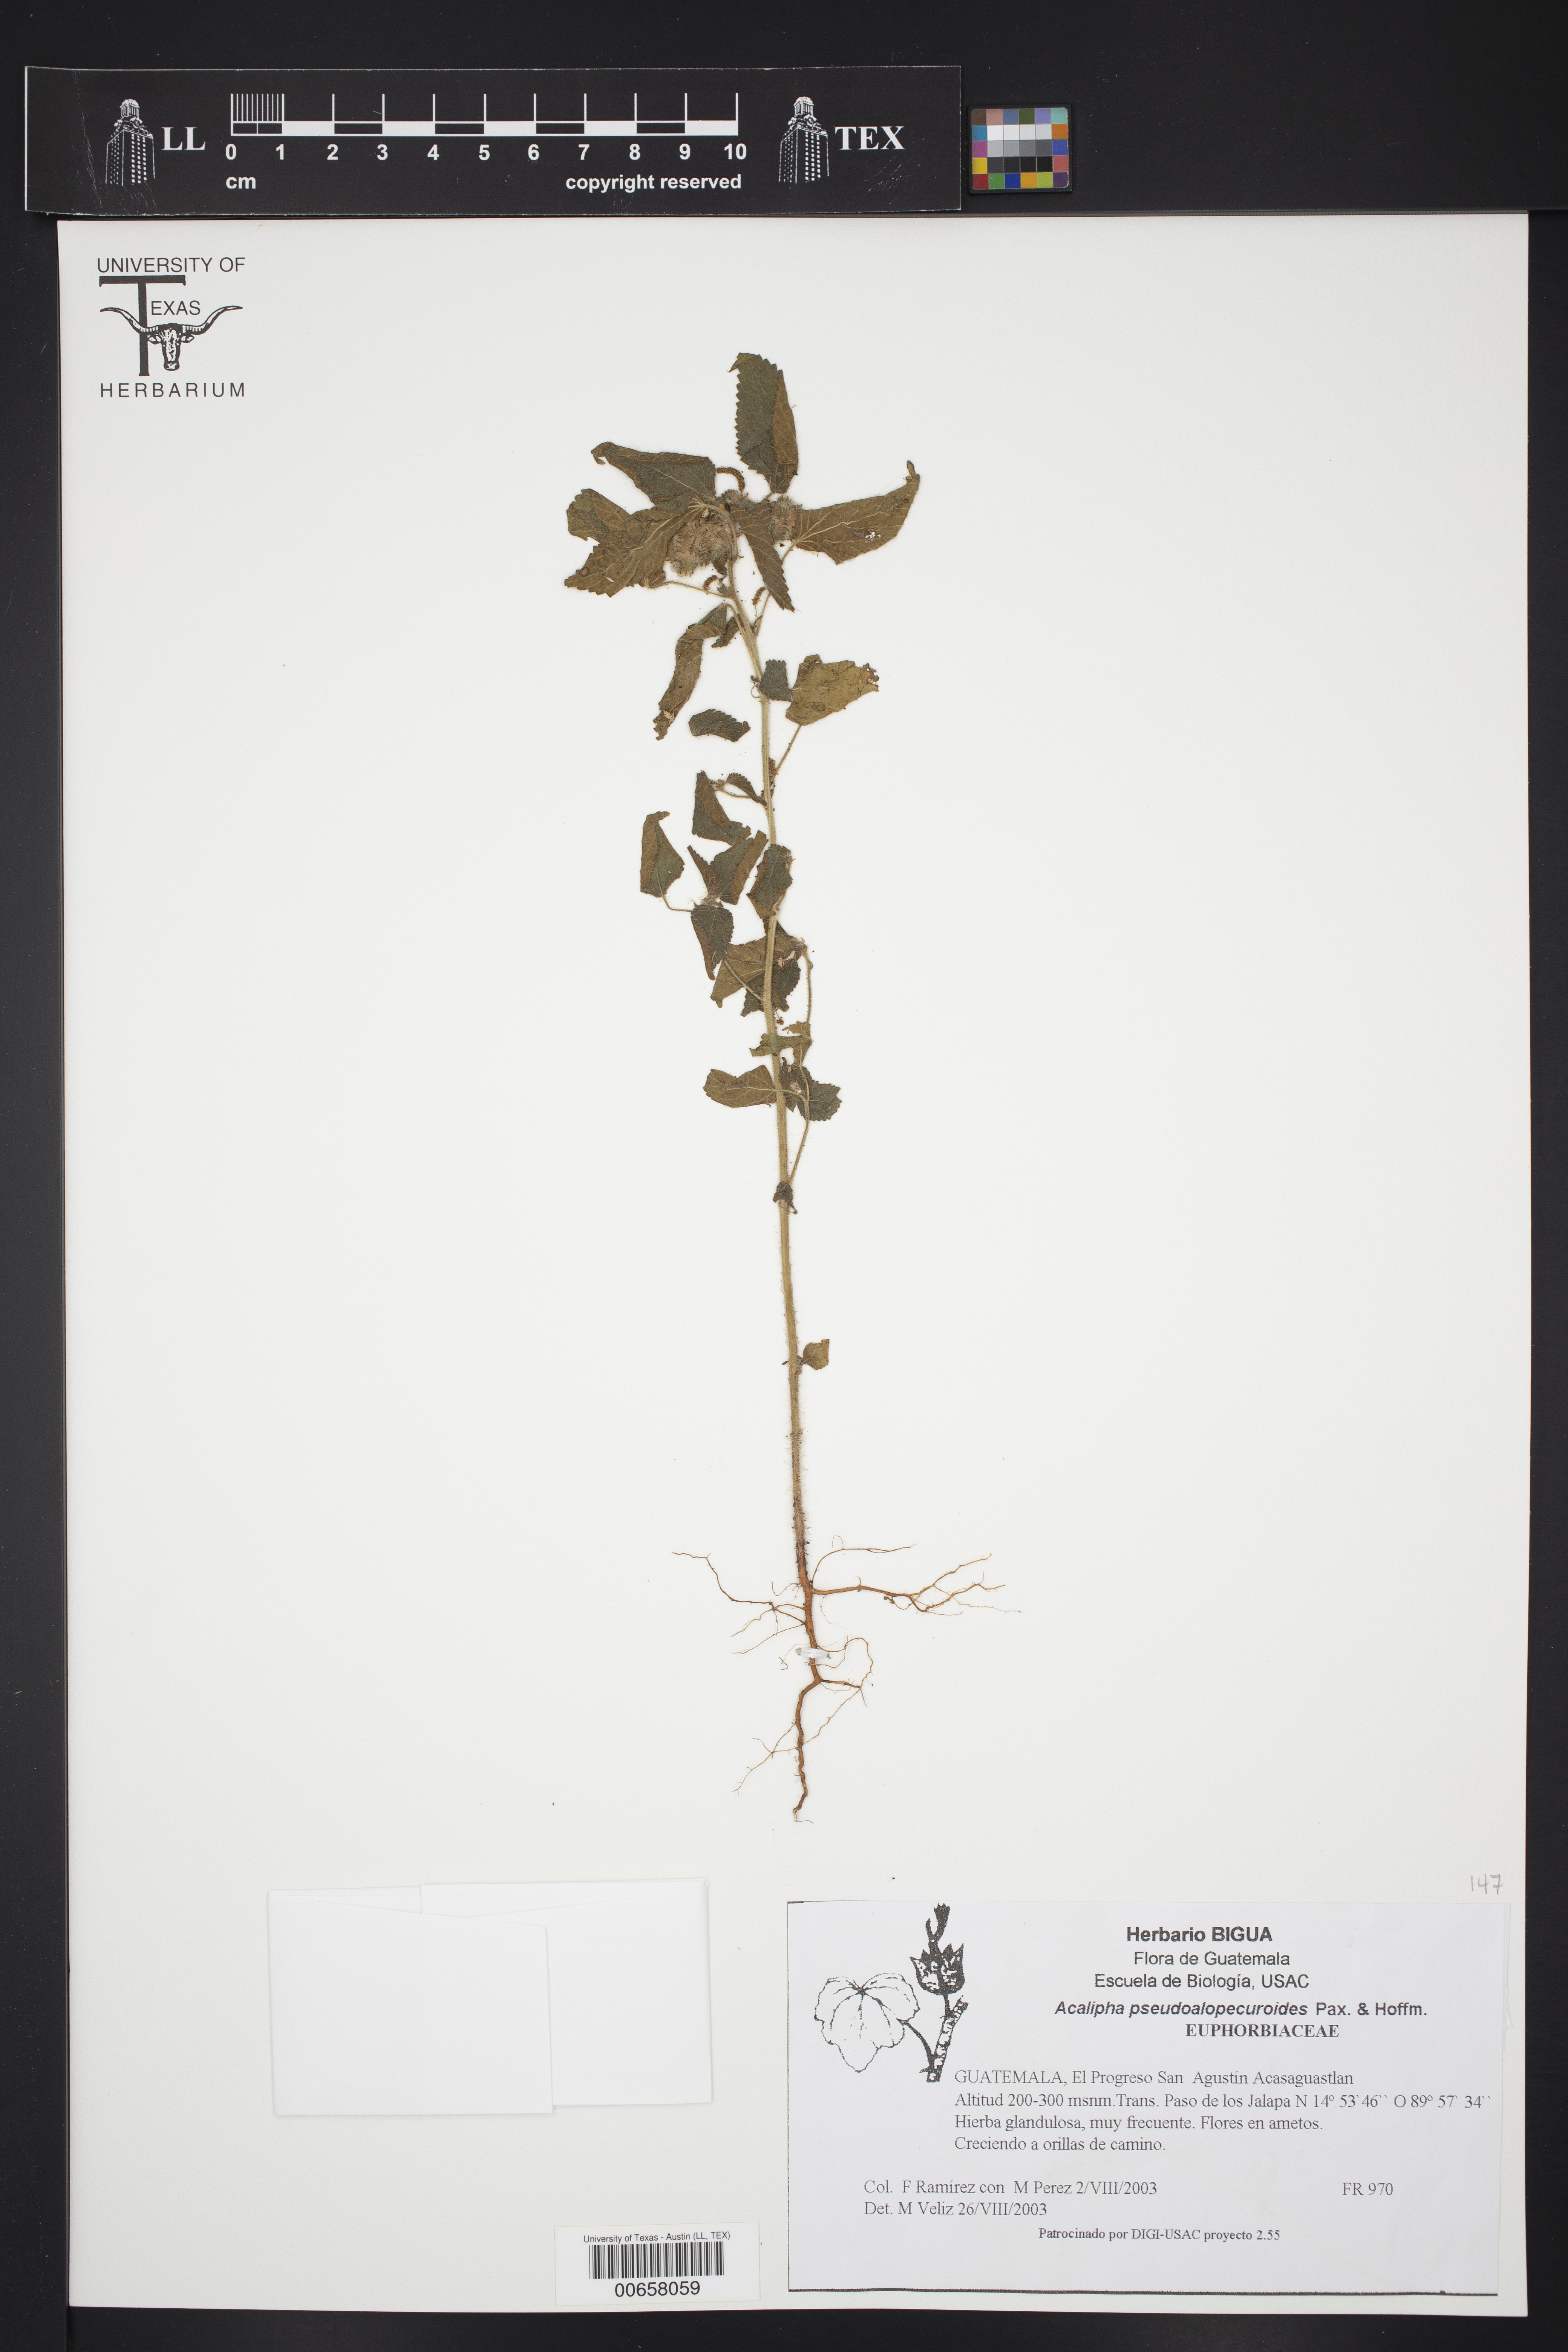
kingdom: Plantae
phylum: Tracheophyta
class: Magnoliopsida
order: Malpighiales
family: Euphorbiaceae
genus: Acalypha
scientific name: Acalypha pseudalopecuroides
